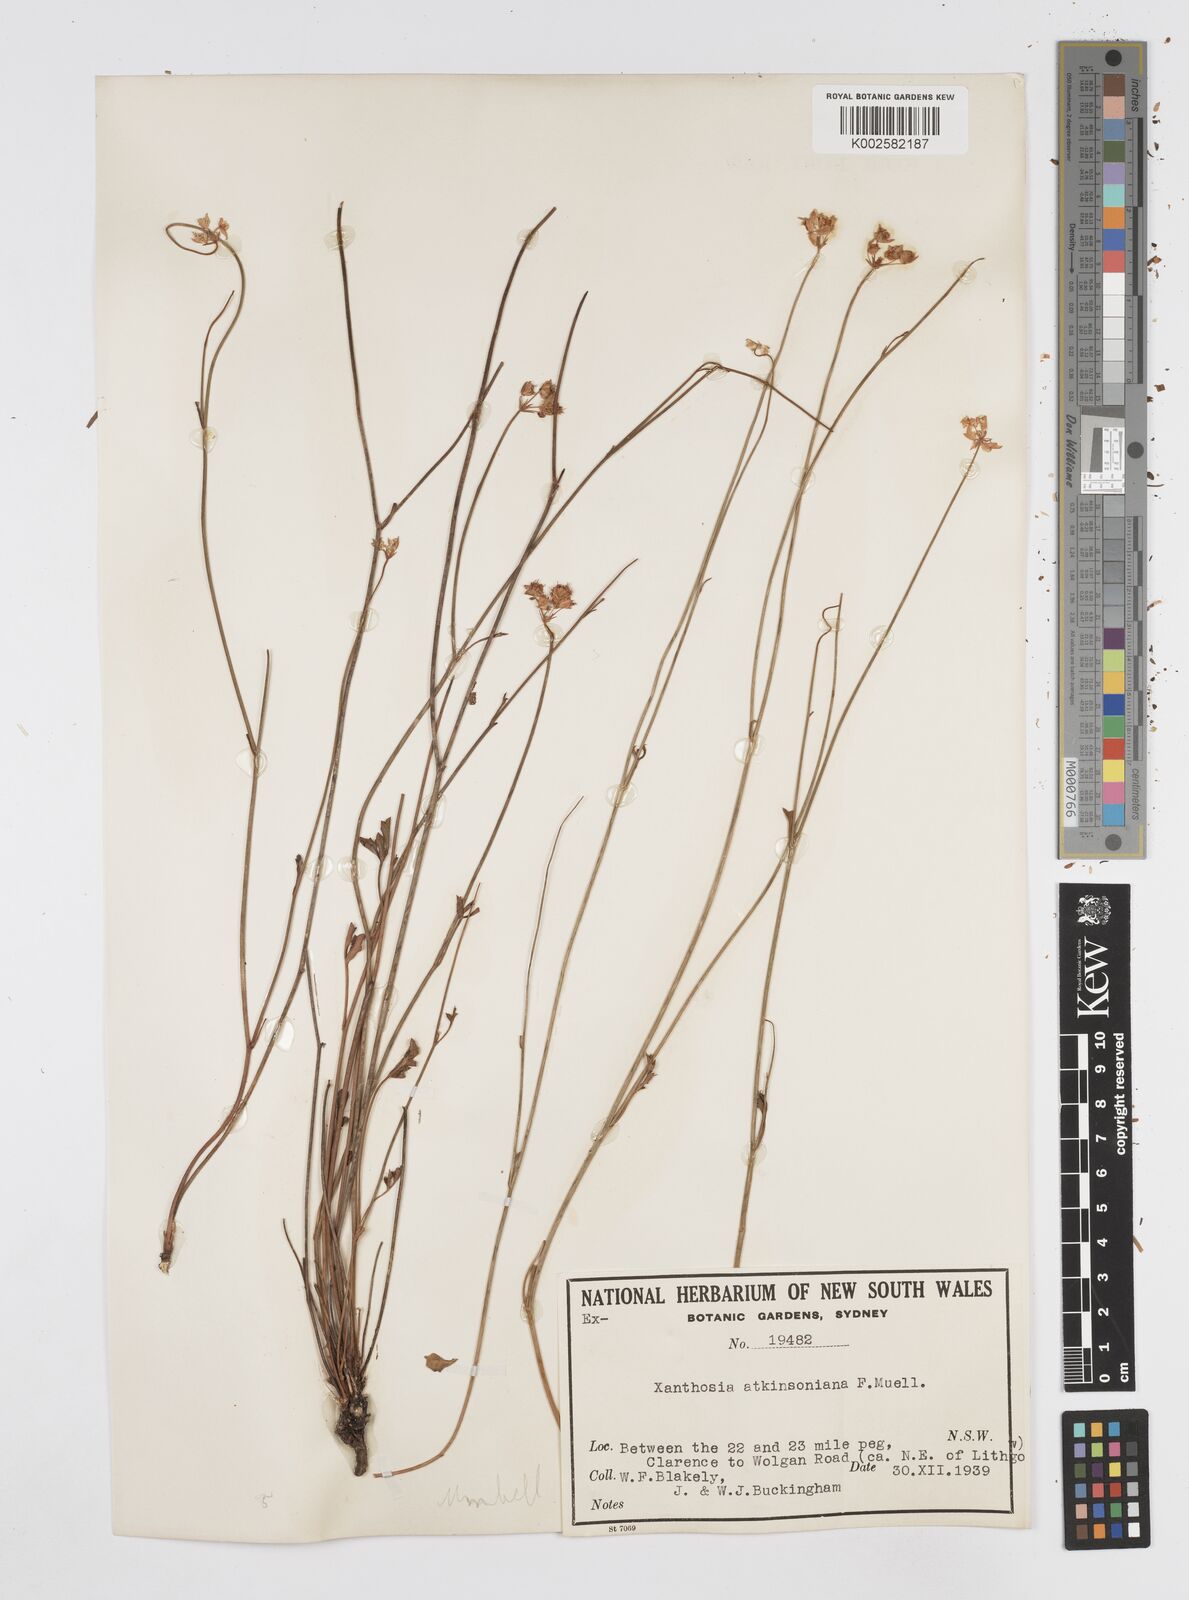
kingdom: Plantae
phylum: Tracheophyta
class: Magnoliopsida
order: Apiales
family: Apiaceae
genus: Xanthosia
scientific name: Xanthosia atkinsoniana
